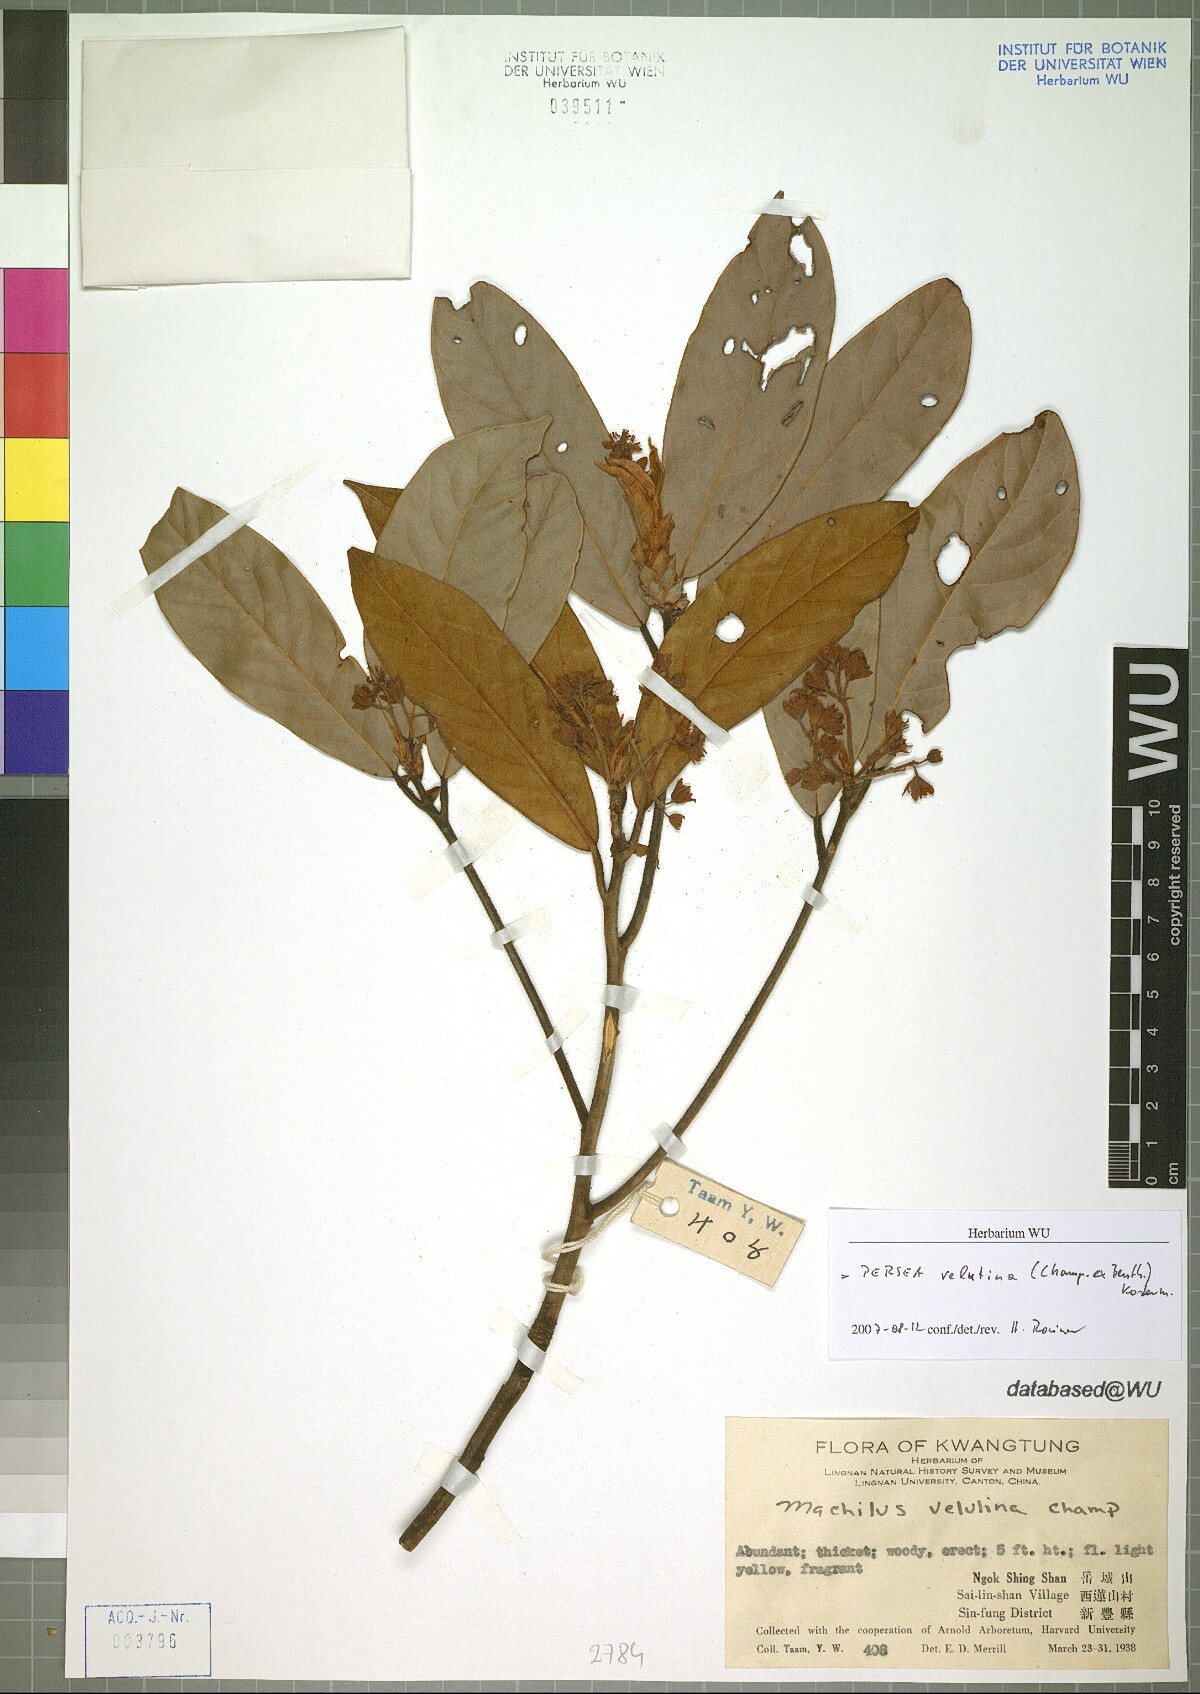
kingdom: Plantae
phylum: Tracheophyta
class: Magnoliopsida
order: Laurales
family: Lauraceae
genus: Machilus
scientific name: Machilus velutina
